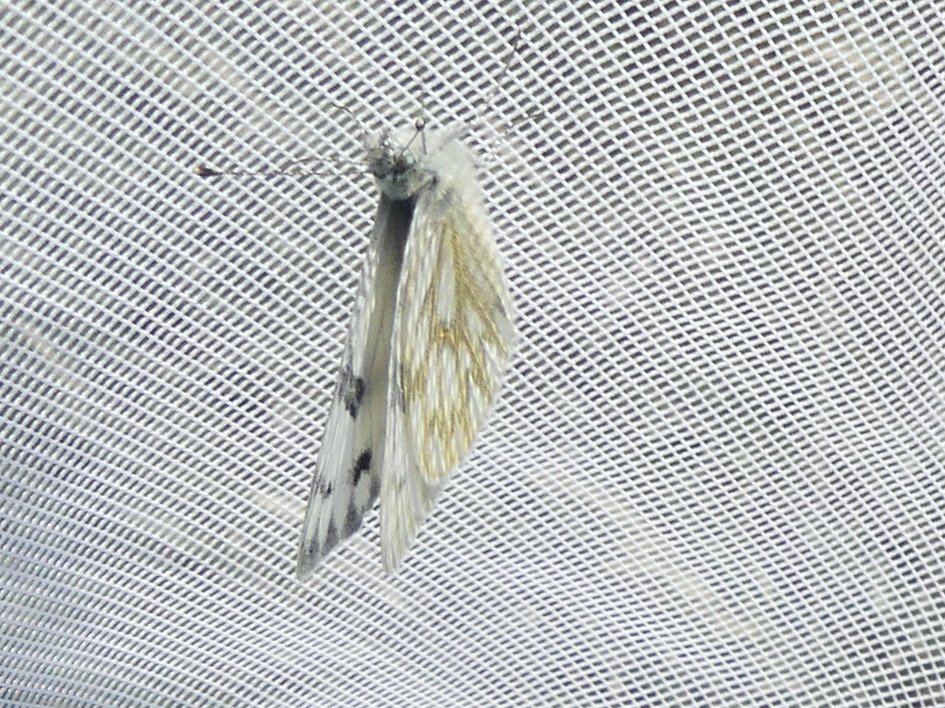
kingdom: Animalia
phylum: Arthropoda
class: Insecta
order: Lepidoptera
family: Pieridae
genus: Pontia
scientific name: Pontia occidentalis
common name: Western White
